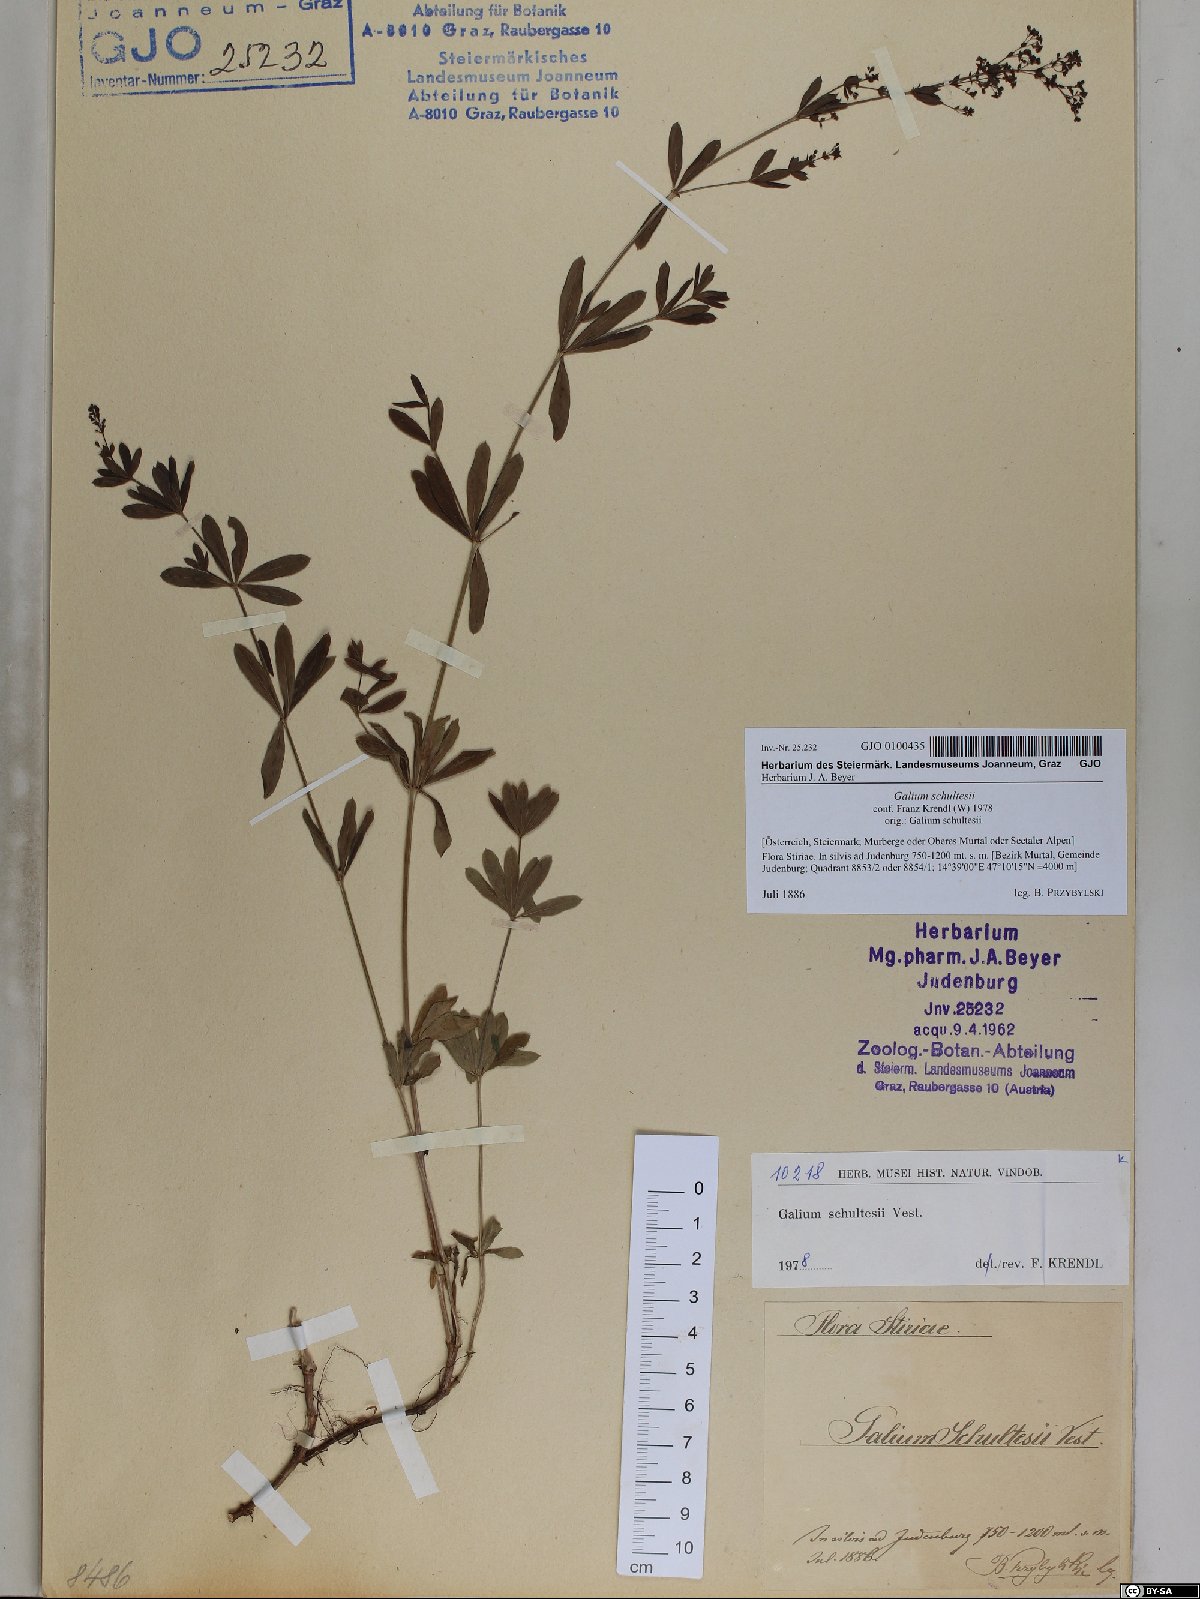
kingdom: Plantae
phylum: Tracheophyta
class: Magnoliopsida
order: Gentianales
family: Rubiaceae
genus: Galium
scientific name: Galium intermedium
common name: Bedstraw
